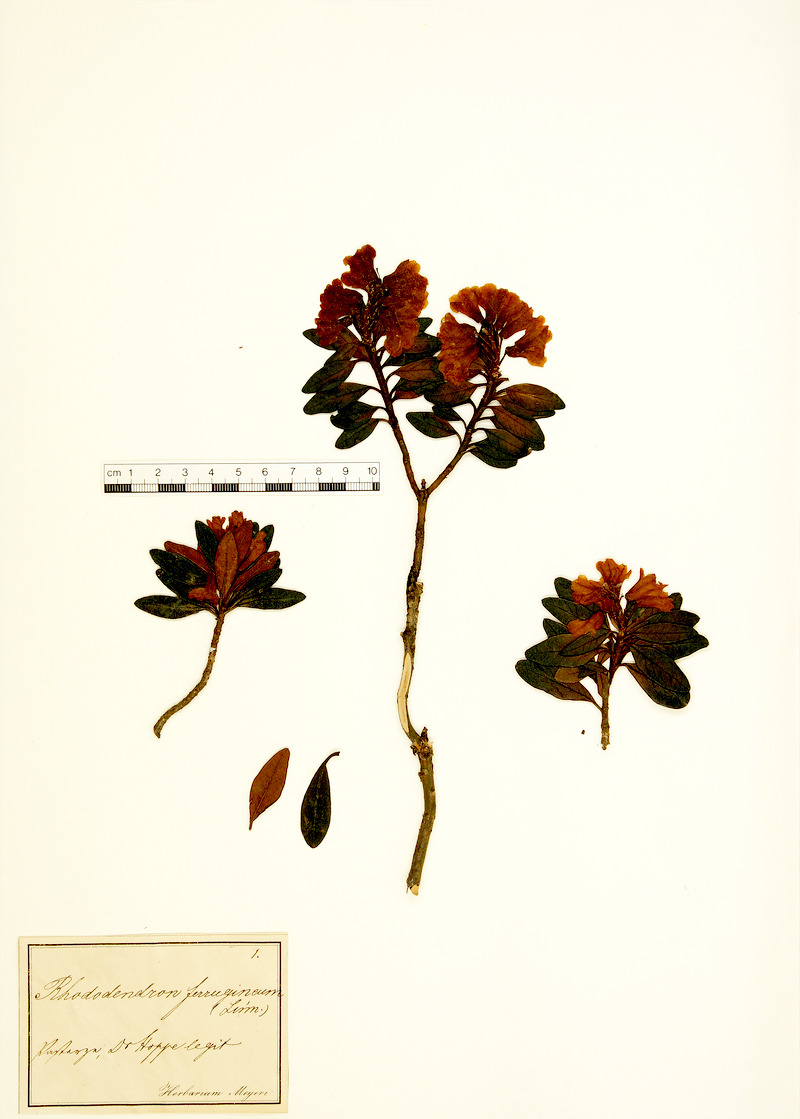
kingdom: Plantae
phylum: Tracheophyta
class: Magnoliopsida
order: Ericales
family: Ericaceae
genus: Rhododendron
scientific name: Rhododendron ferrugineum
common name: Alpenrose
